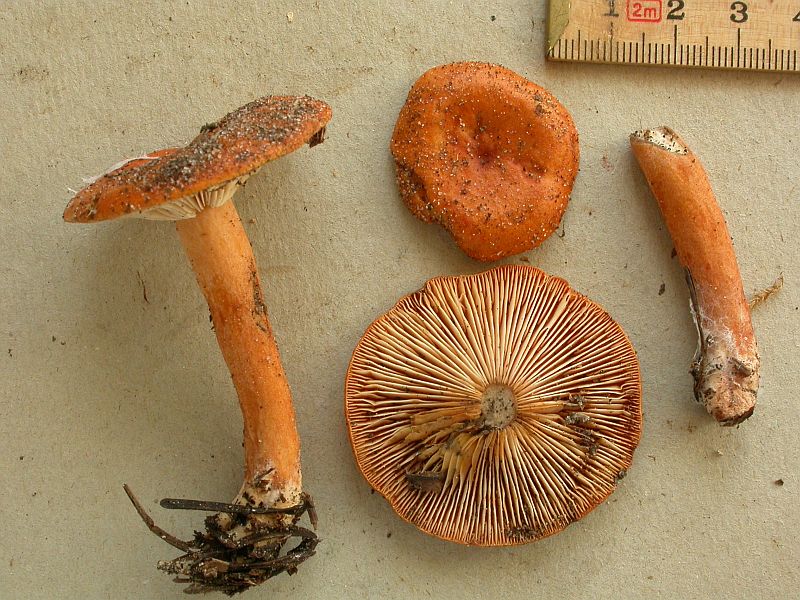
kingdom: Fungi
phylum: Basidiomycota
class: Agaricomycetes
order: Russulales
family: Russulaceae
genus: Lactarius
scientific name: Lactarius aurantiacus
